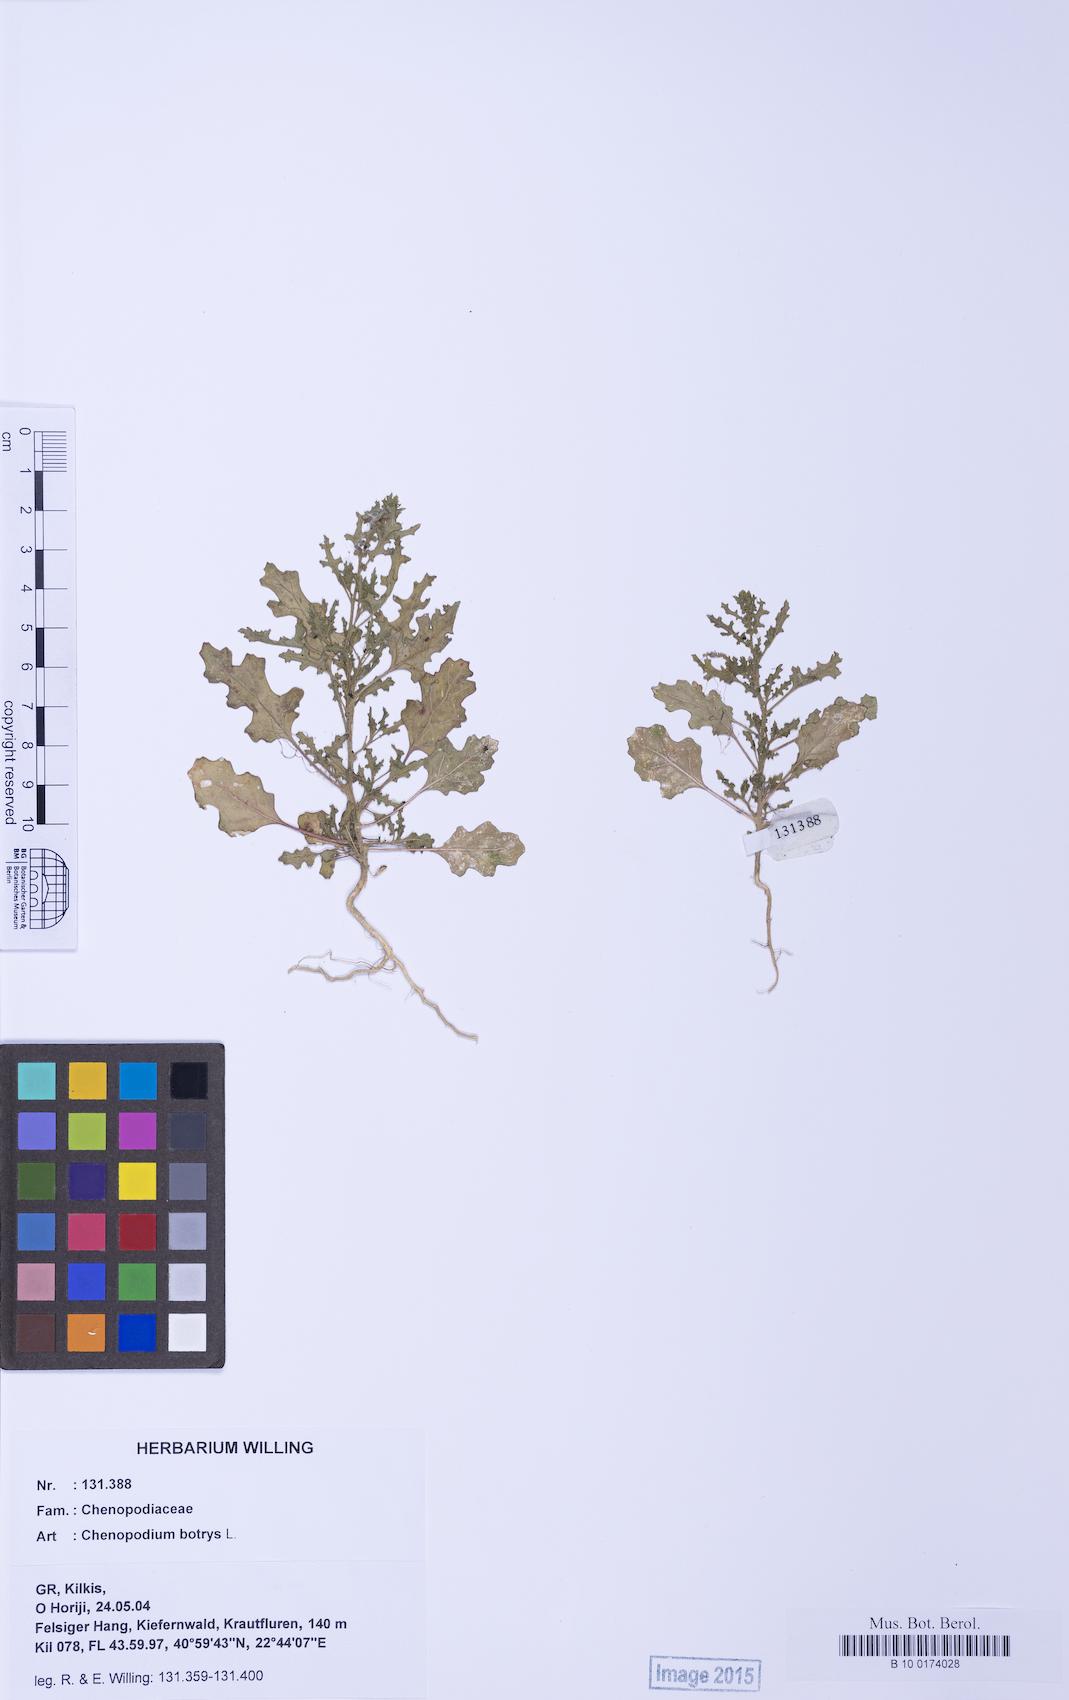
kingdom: Plantae
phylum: Tracheophyta
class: Magnoliopsida
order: Caryophyllales
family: Amaranthaceae
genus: Dysphania
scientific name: Dysphania botrys
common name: Feather-geranium
